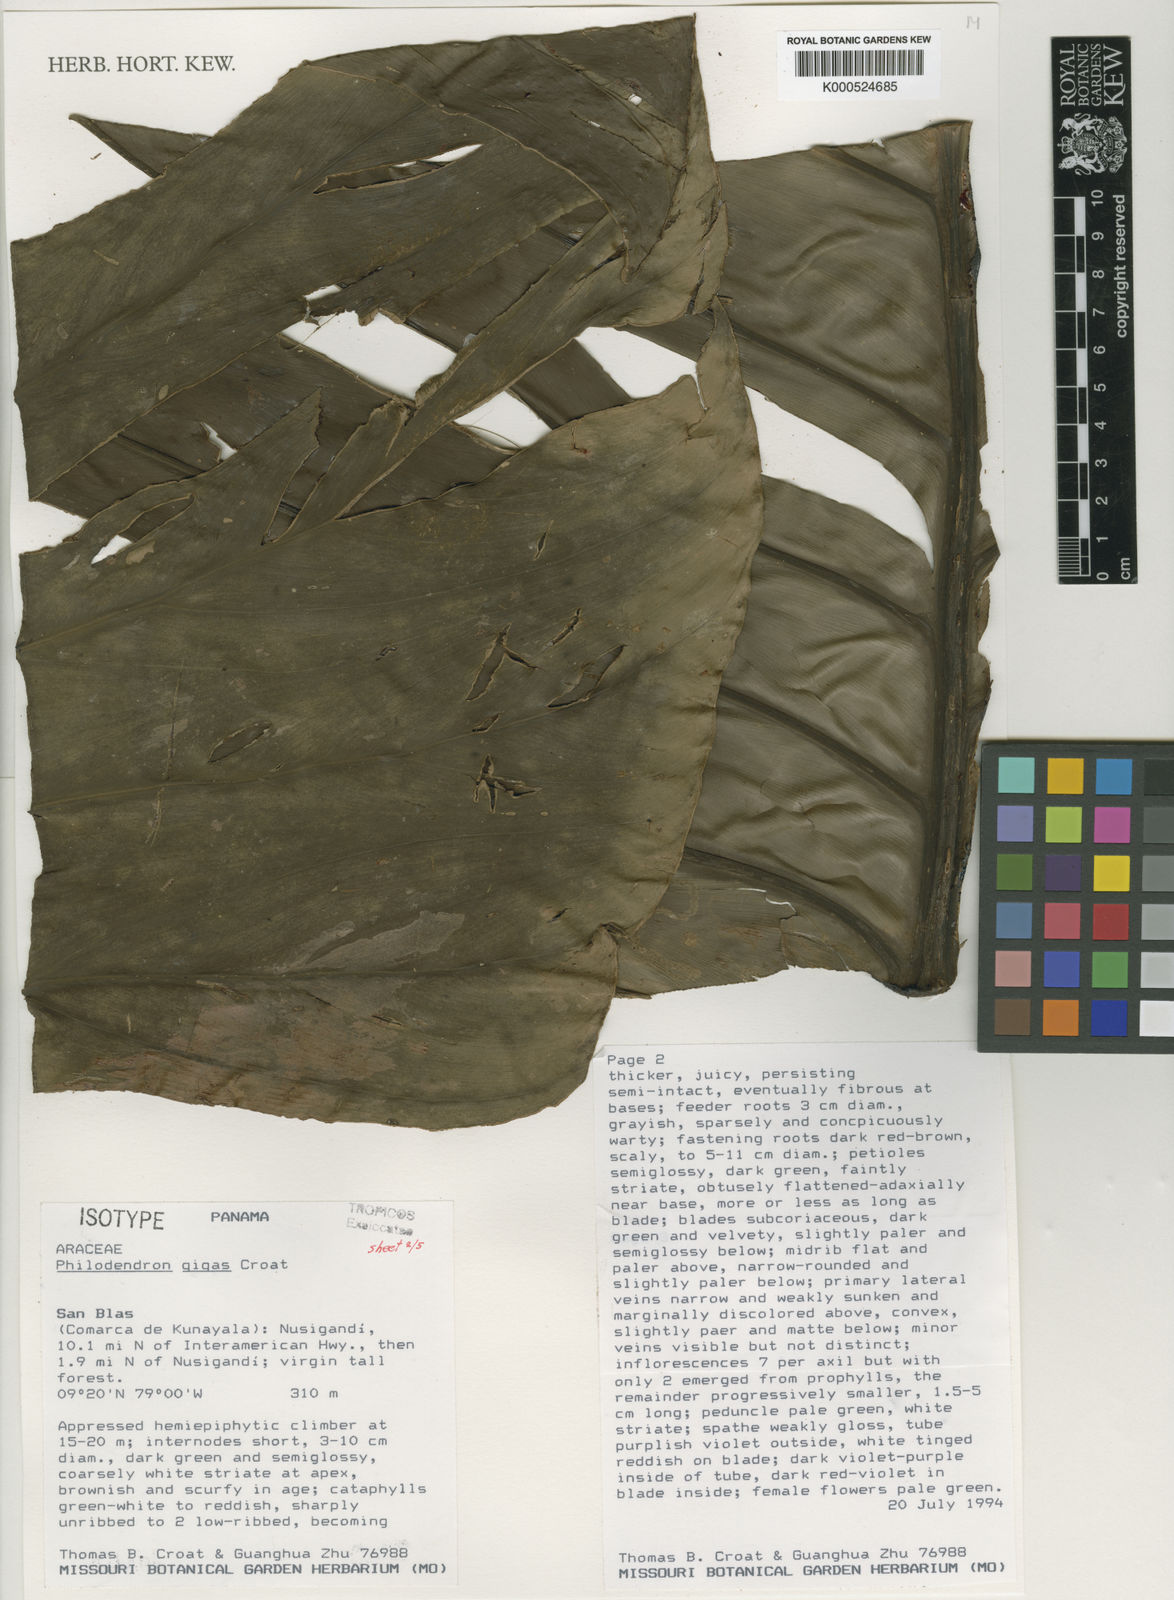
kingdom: Plantae
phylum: Tracheophyta
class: Liliopsida
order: Alismatales
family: Araceae
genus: Philodendron
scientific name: Philodendron gigas
